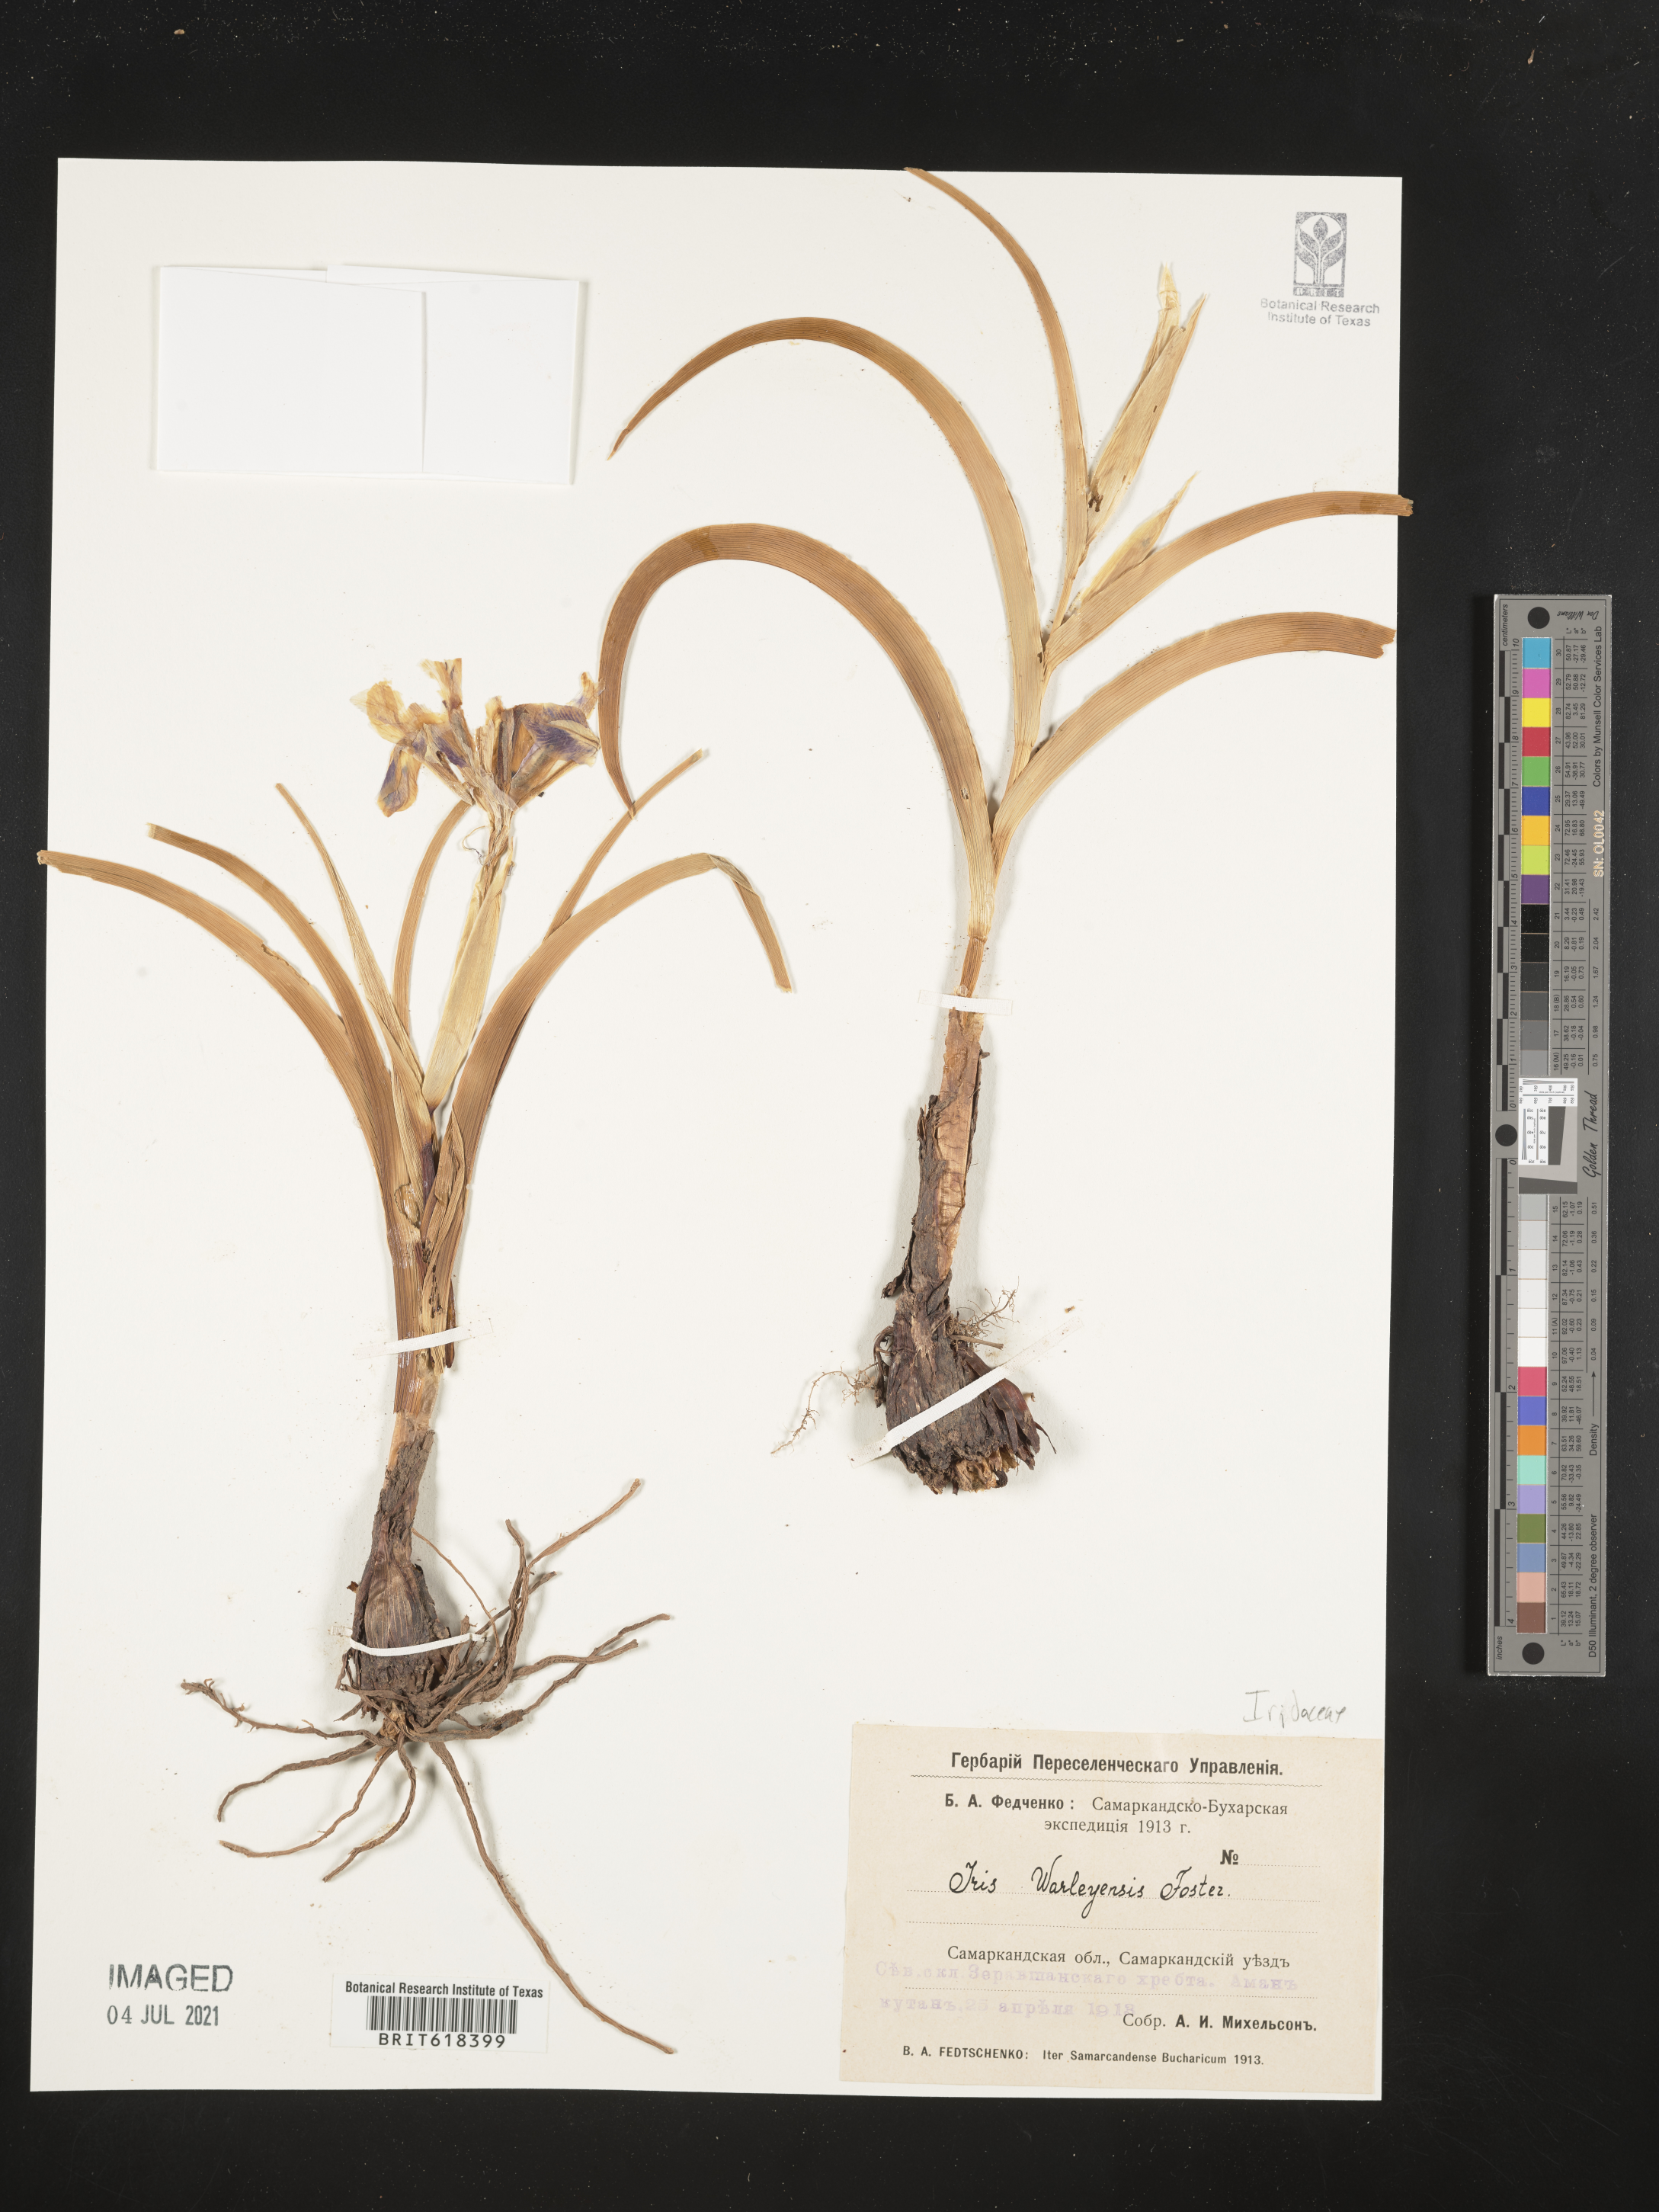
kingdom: Plantae
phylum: Tracheophyta
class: Liliopsida
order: Asparagales
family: Iridaceae
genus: Iris
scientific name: Iris warleyensis
